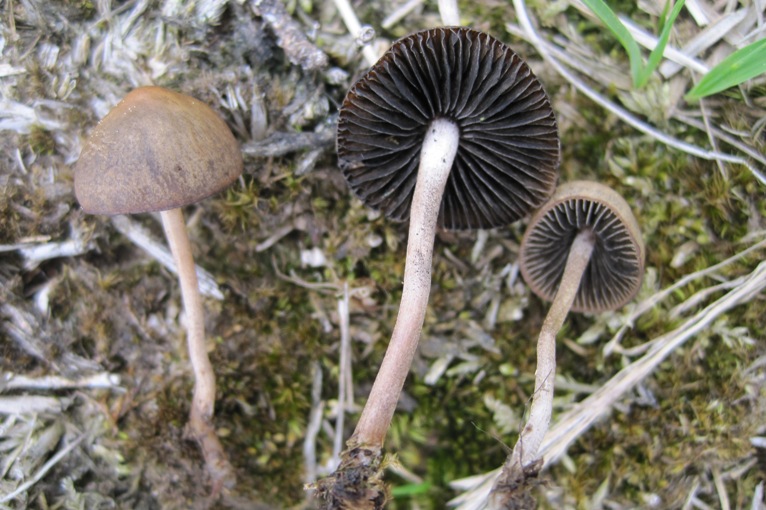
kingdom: Fungi
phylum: Basidiomycota
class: Agaricomycetes
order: Agaricales
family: Bolbitiaceae
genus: Panaeolus
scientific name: Panaeolus olivaceus
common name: lysstokket glanshat
